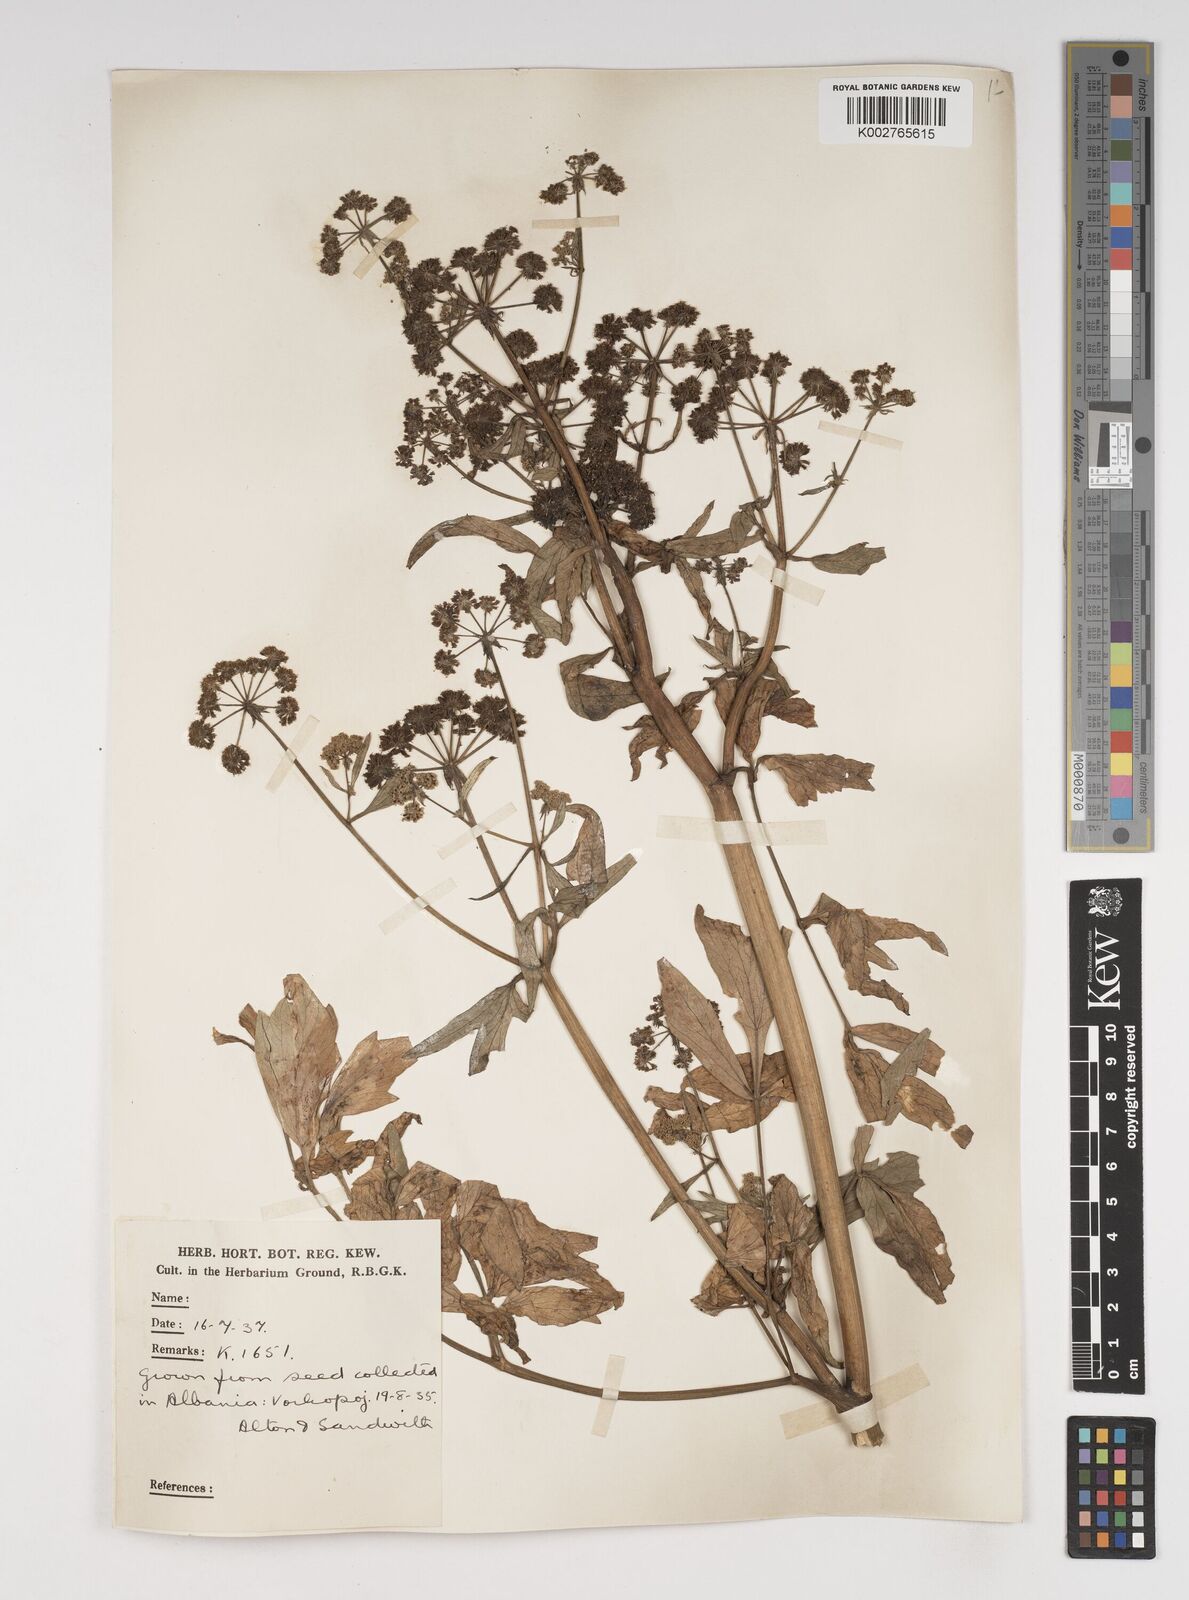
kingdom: Plantae
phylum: Tracheophyta
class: Magnoliopsida
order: Apiales
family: Apiaceae
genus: Levisticum
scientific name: Levisticum officinale
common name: Lovage
